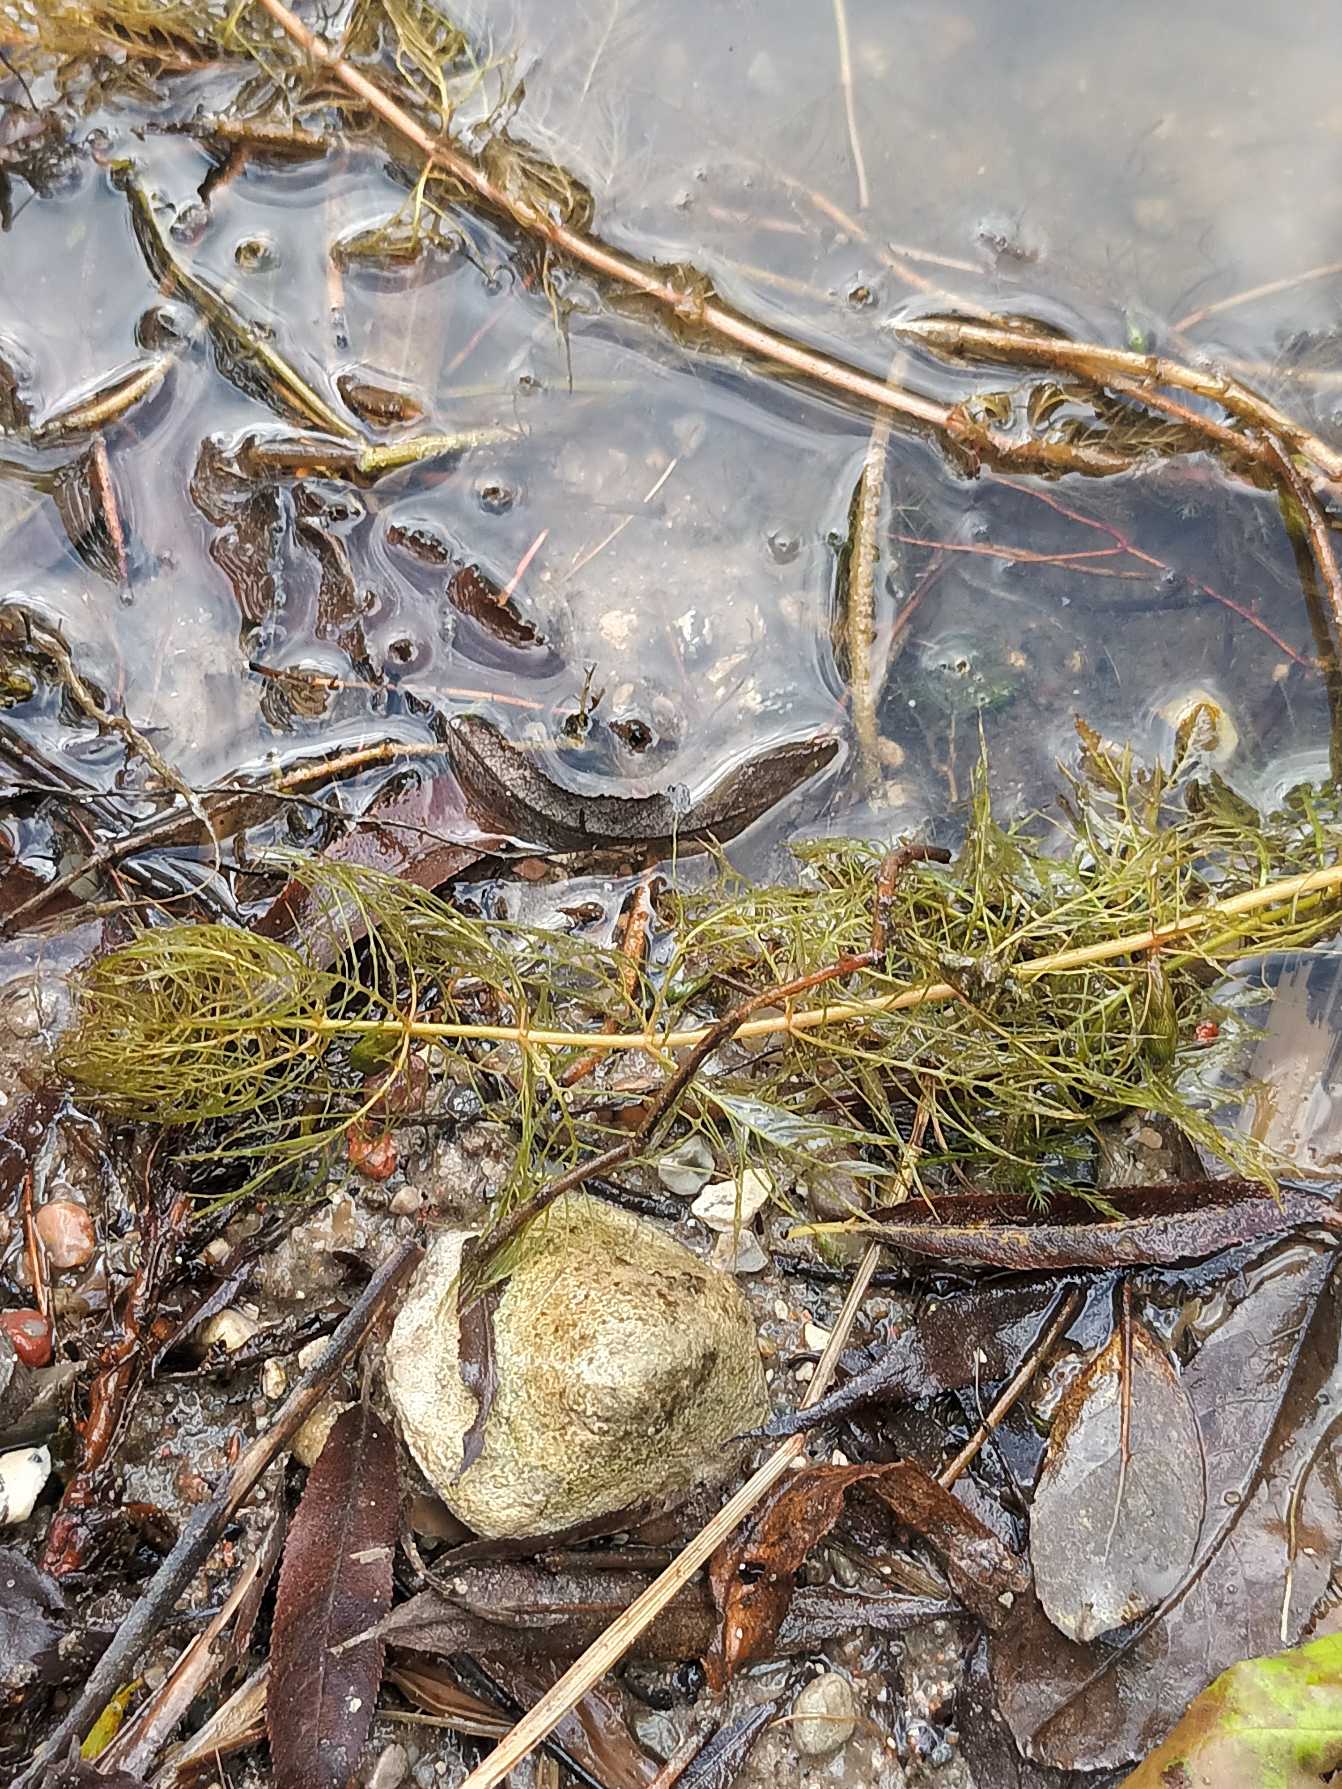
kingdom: Plantae
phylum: Tracheophyta
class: Magnoliopsida
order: Saxifragales
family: Haloragaceae
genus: Myriophyllum
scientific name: Myriophyllum spicatum
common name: Aks-tusindblad
